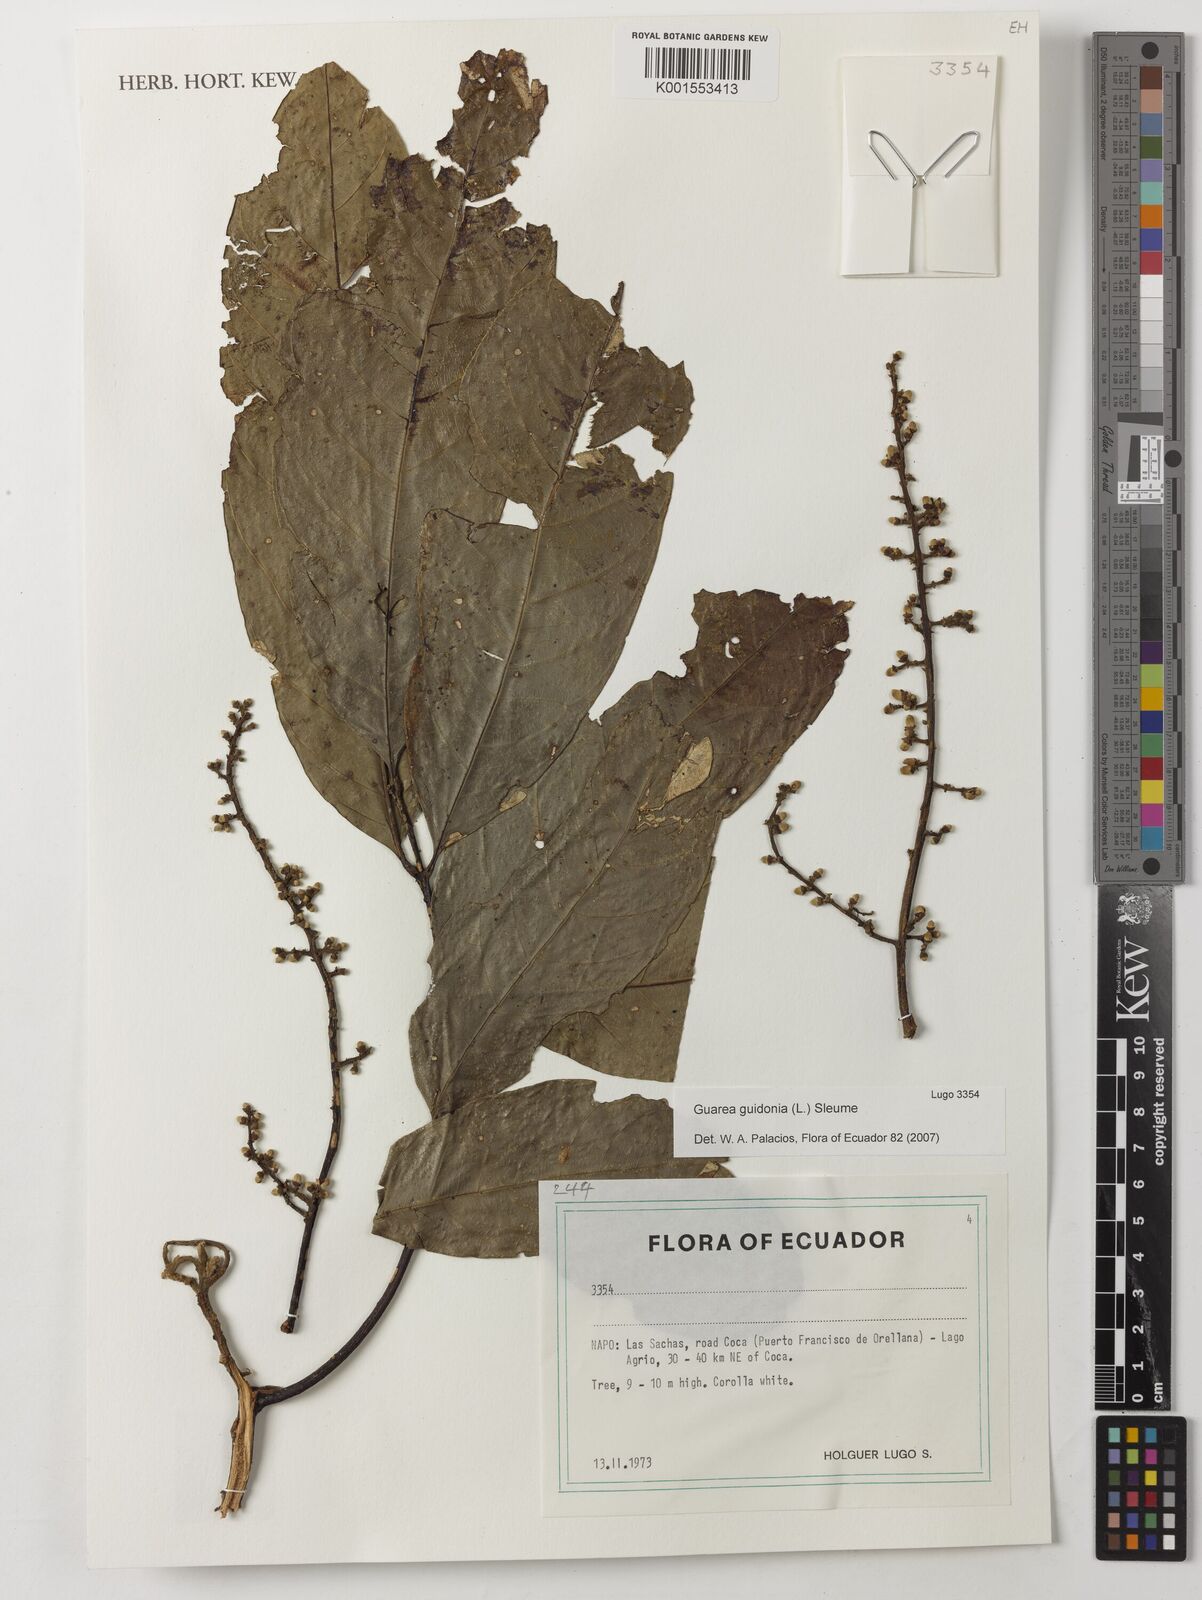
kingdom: Plantae
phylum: Tracheophyta
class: Magnoliopsida
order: Sapindales
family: Meliaceae
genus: Guarea
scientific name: Guarea guidonia
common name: American muskwood
